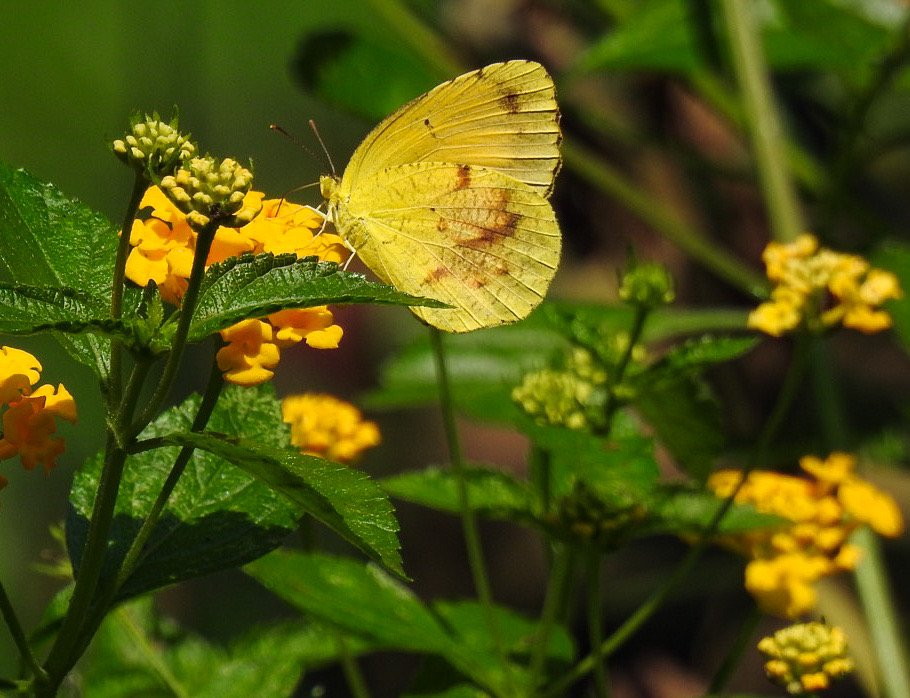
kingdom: Animalia
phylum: Arthropoda
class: Insecta
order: Lepidoptera
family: Pieridae
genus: Abaeis
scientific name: Abaeis nicippe
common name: Sleepy Orange
